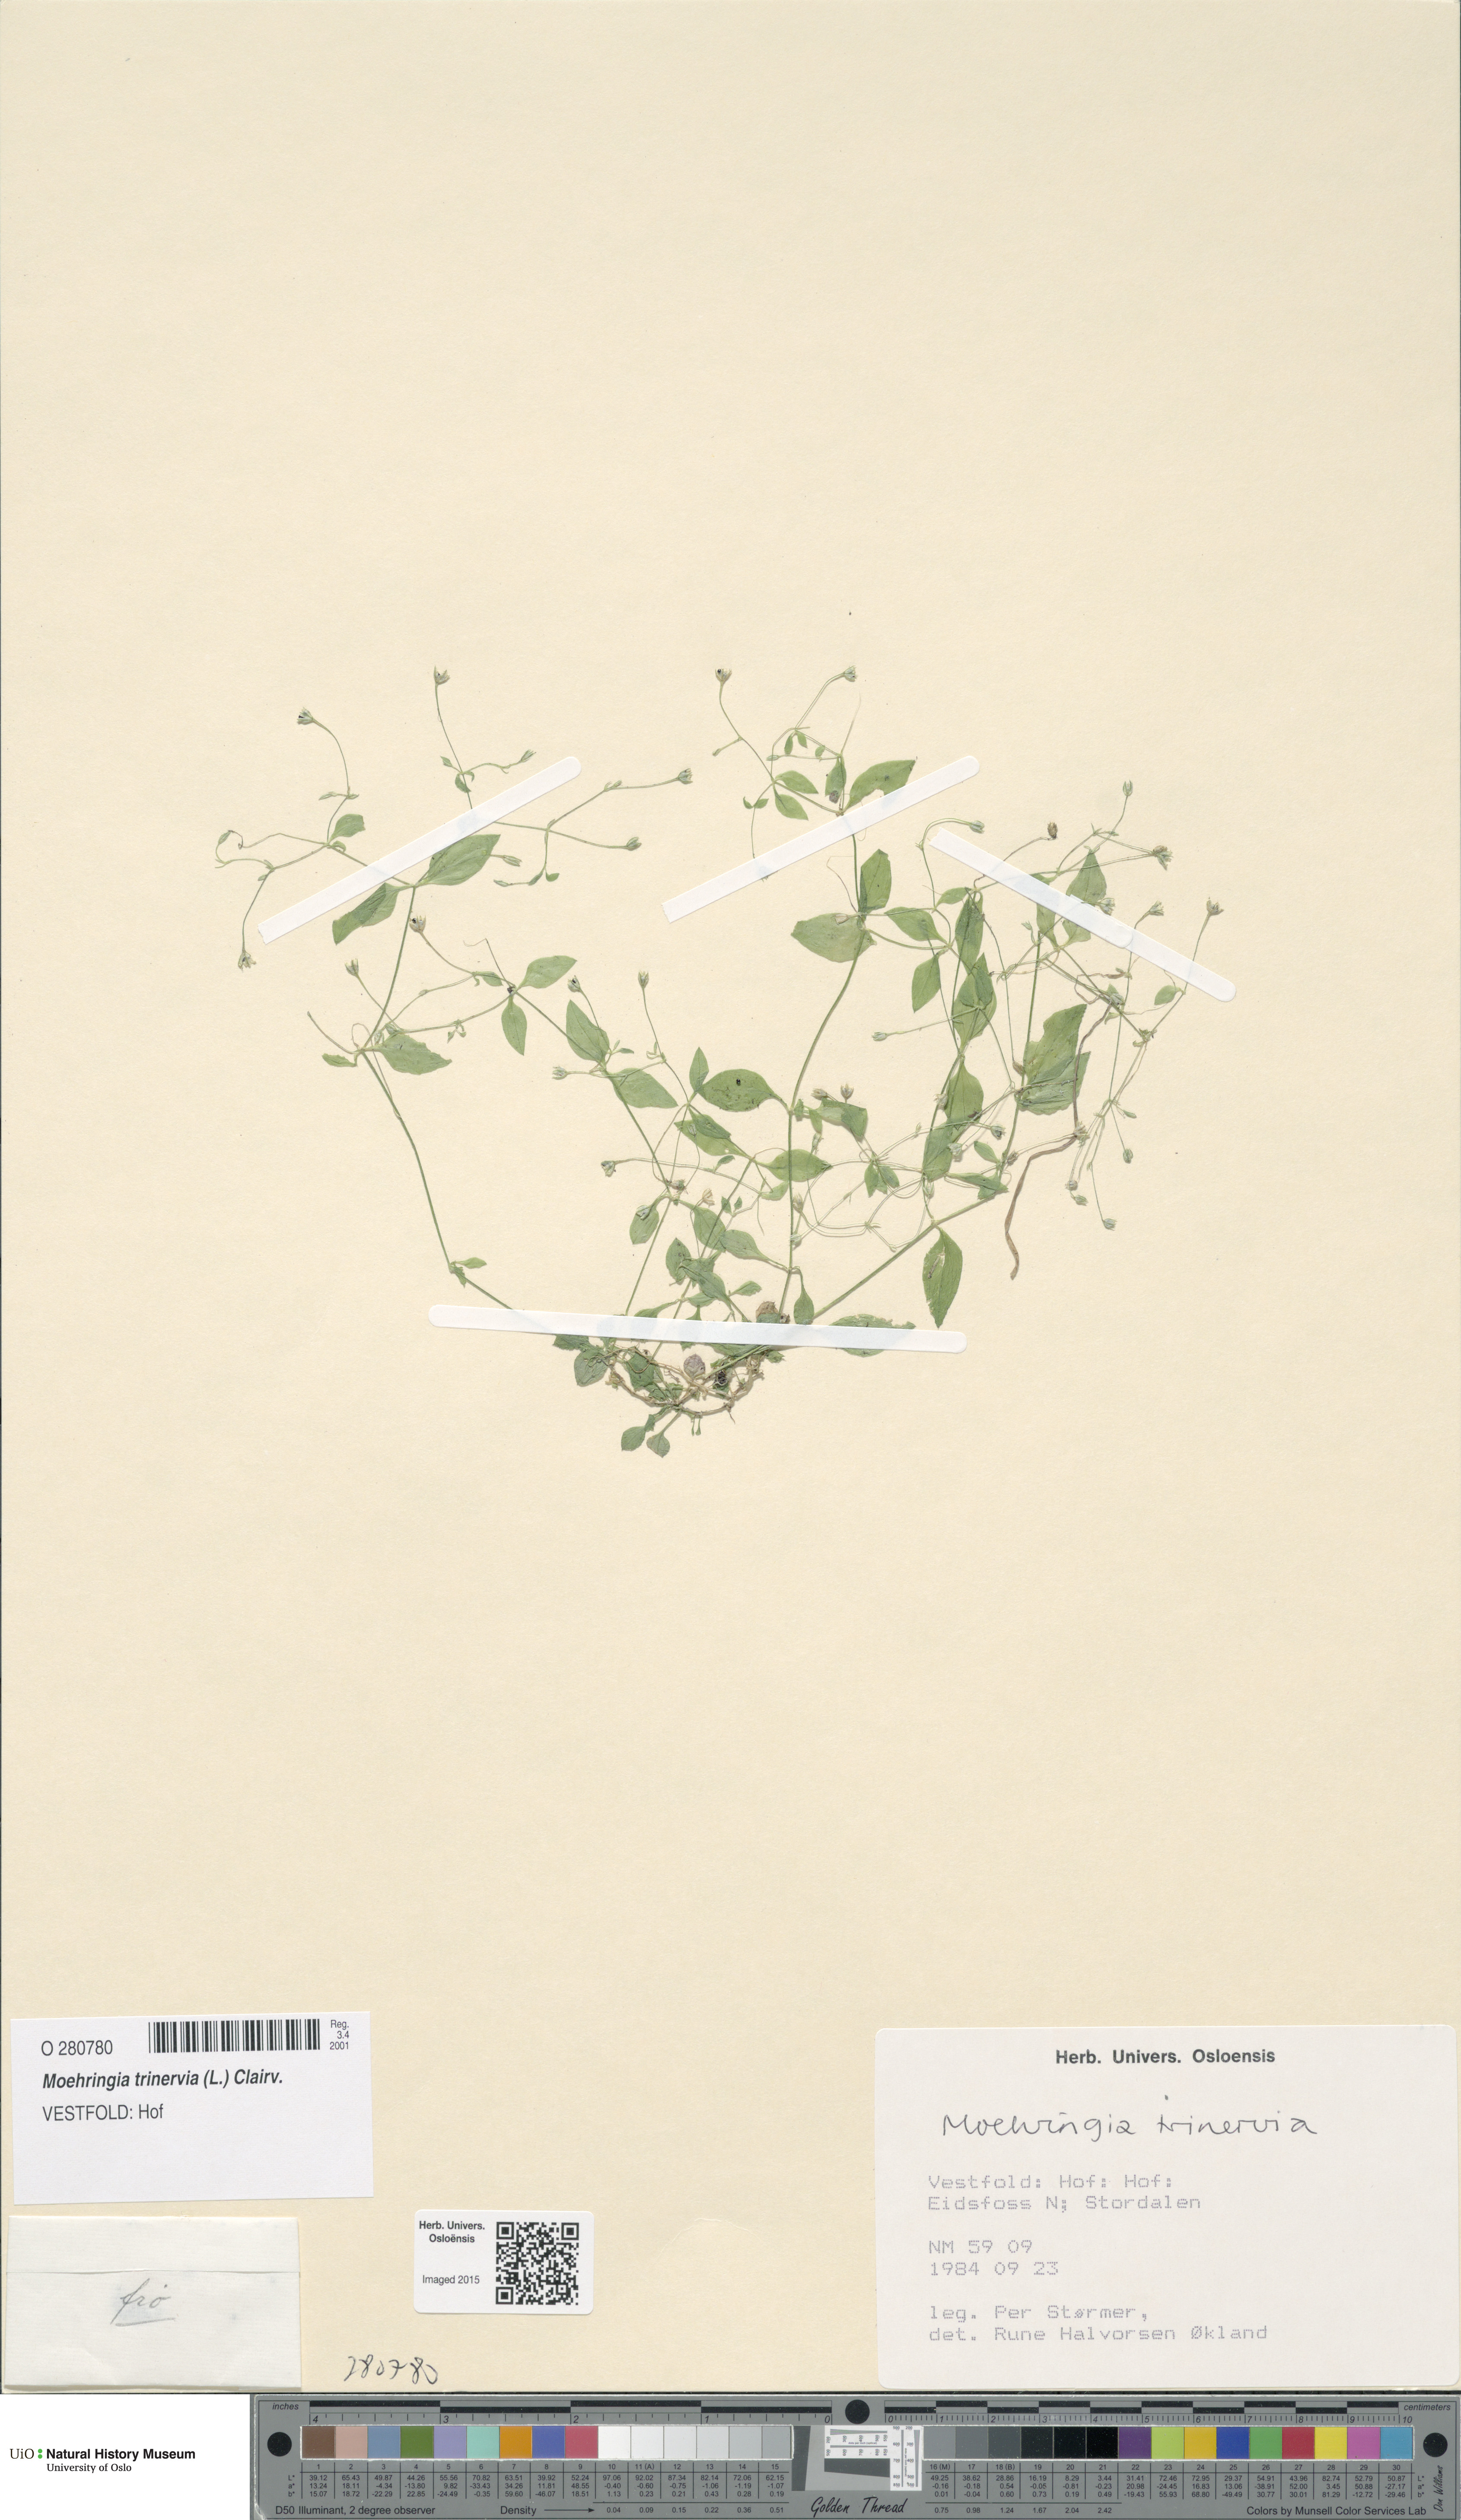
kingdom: Plantae
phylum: Tracheophyta
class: Magnoliopsida
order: Caryophyllales
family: Caryophyllaceae
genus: Moehringia
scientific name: Moehringia trinervia
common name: Three-nerved sandwort
